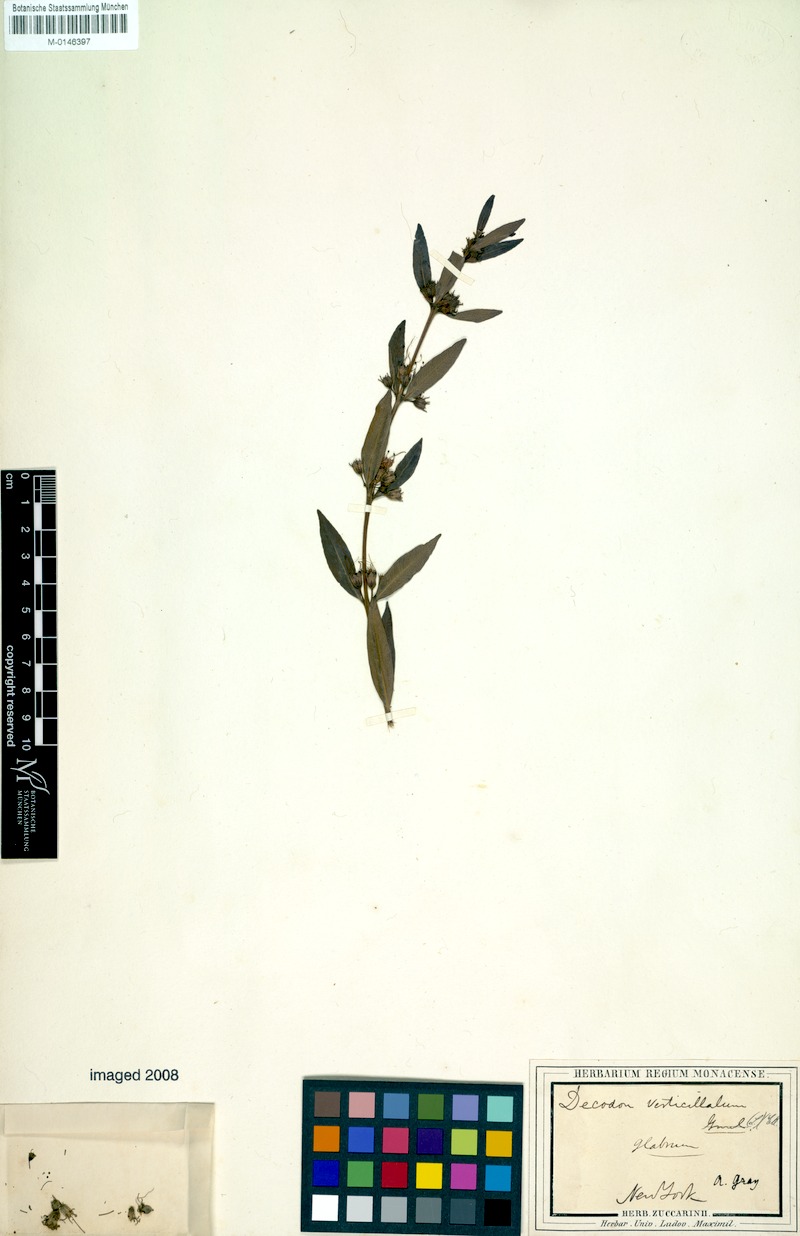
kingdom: Plantae
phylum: Tracheophyta
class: Magnoliopsida
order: Myrtales
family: Lythraceae
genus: Decodon
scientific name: Decodon verticillatus
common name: Hairy swamp loosestrife
